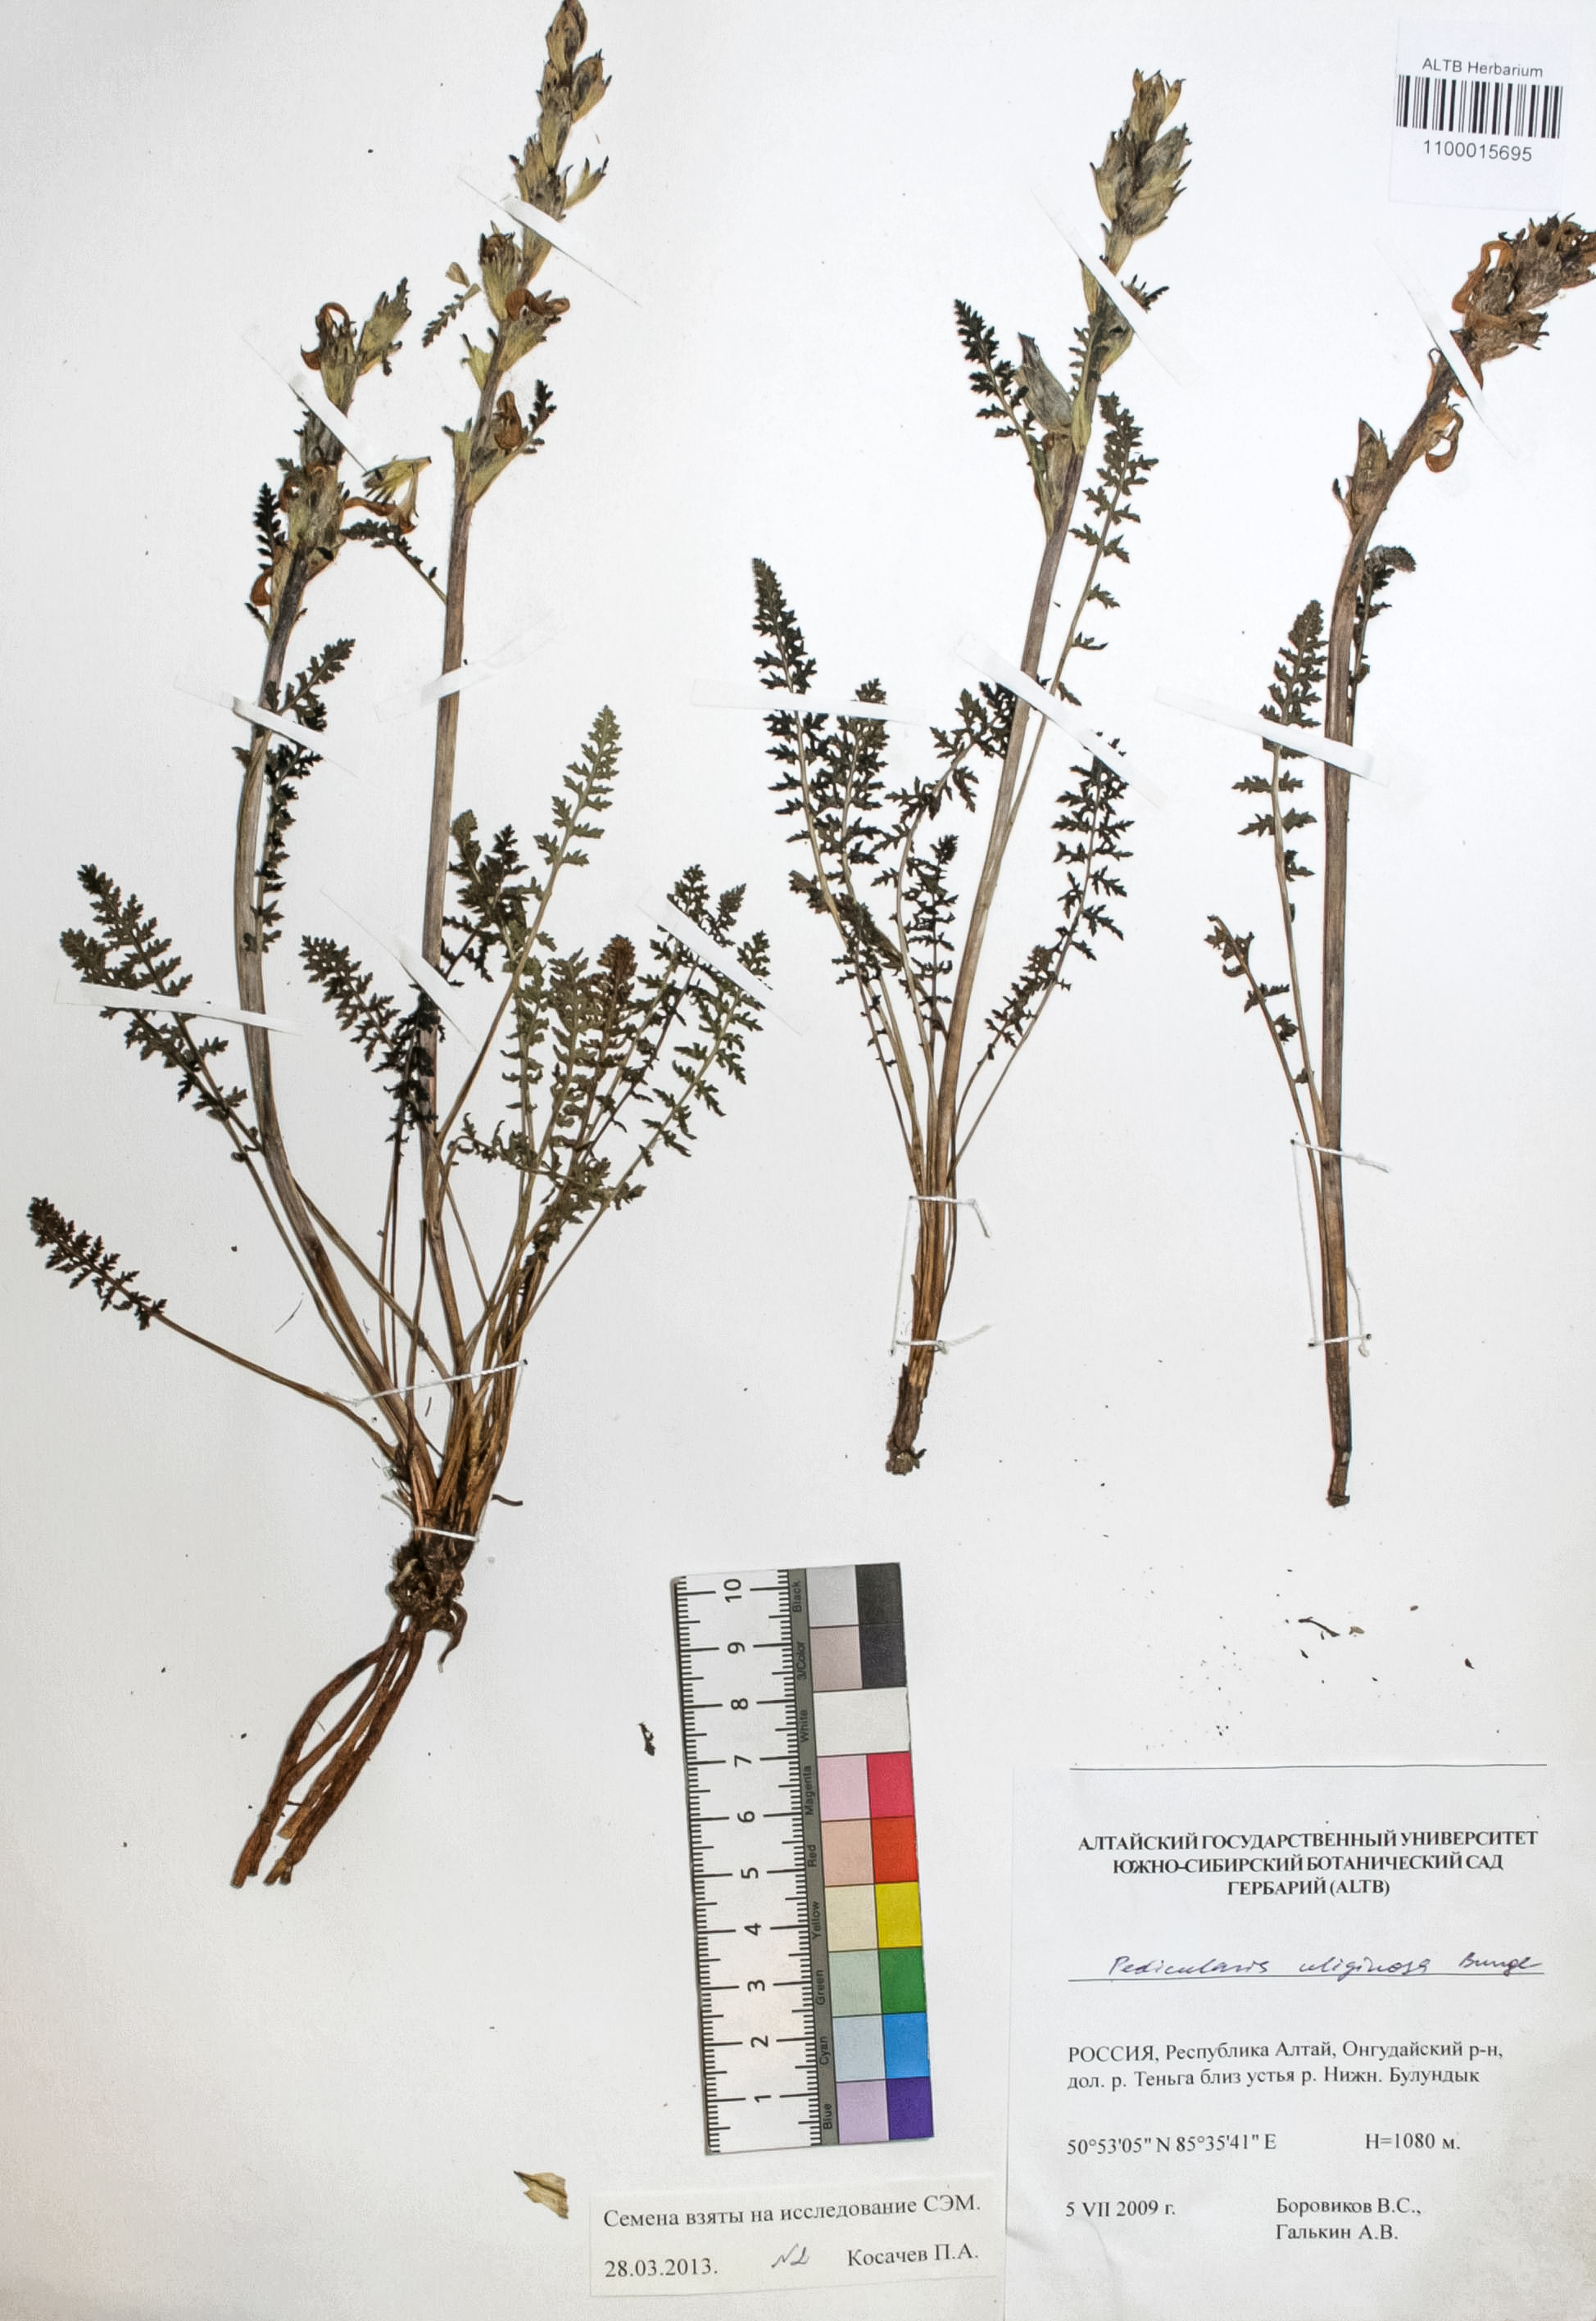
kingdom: Plantae
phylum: Tracheophyta
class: Magnoliopsida
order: Lamiales
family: Orobanchaceae
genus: Pedicularis
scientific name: Pedicularis uliginosa
